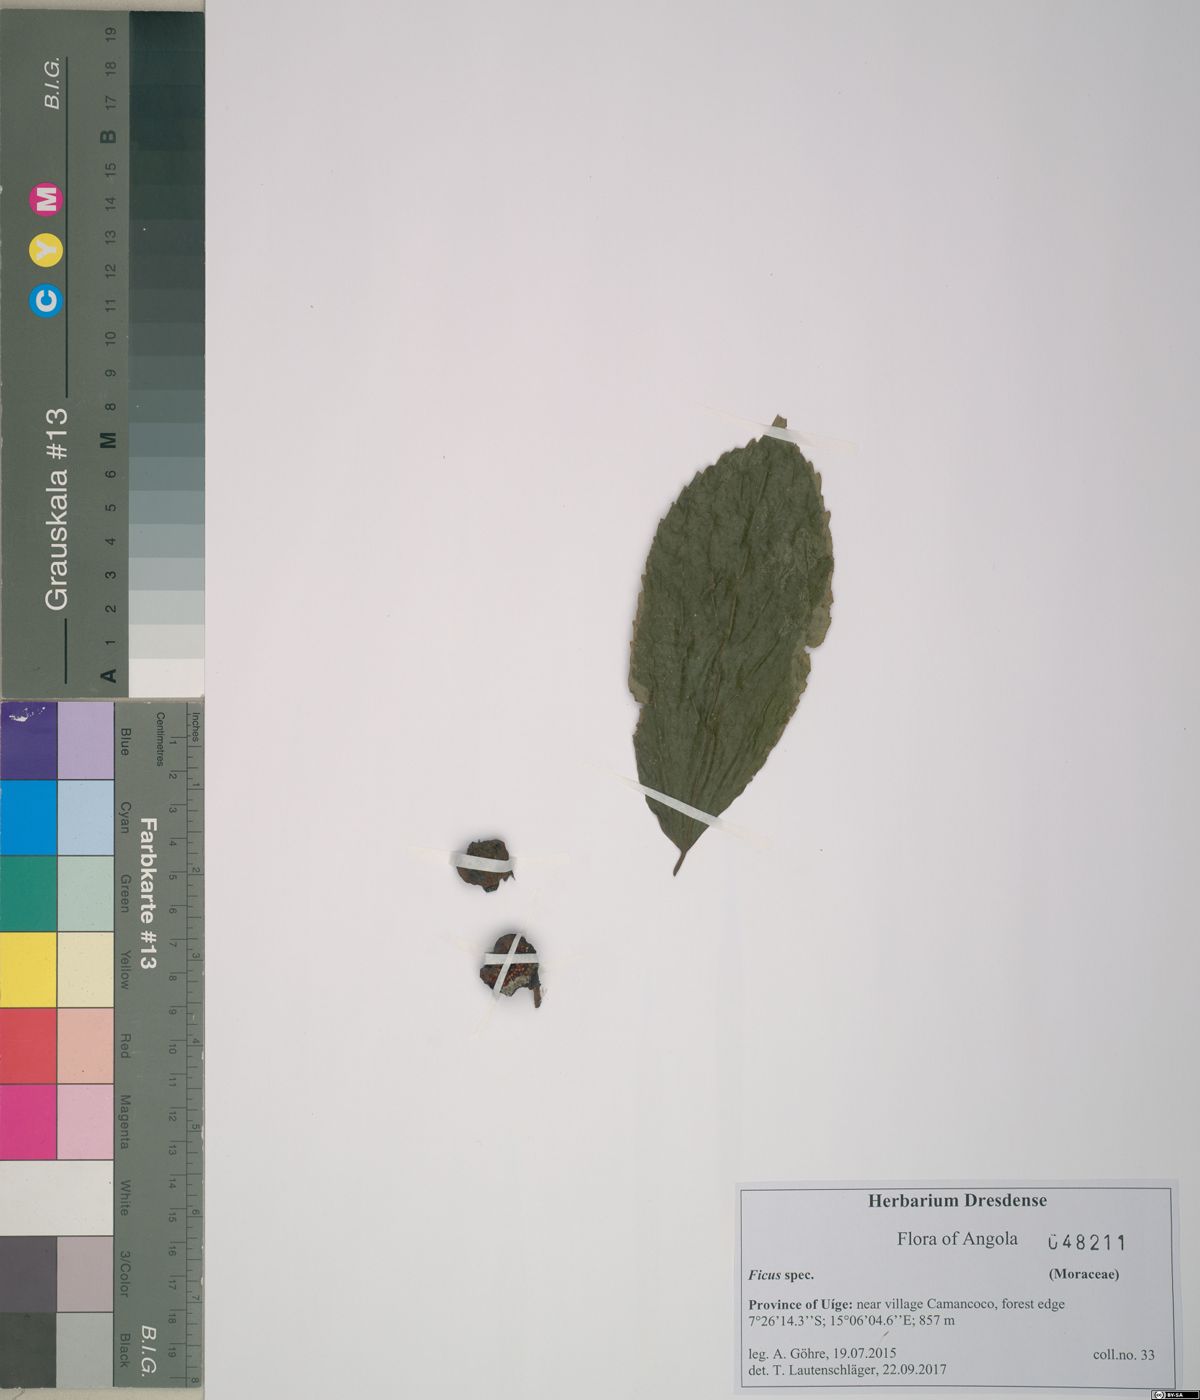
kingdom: Plantae
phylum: Tracheophyta
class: Magnoliopsida
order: Rosales
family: Moraceae
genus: Ficus
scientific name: Ficus
